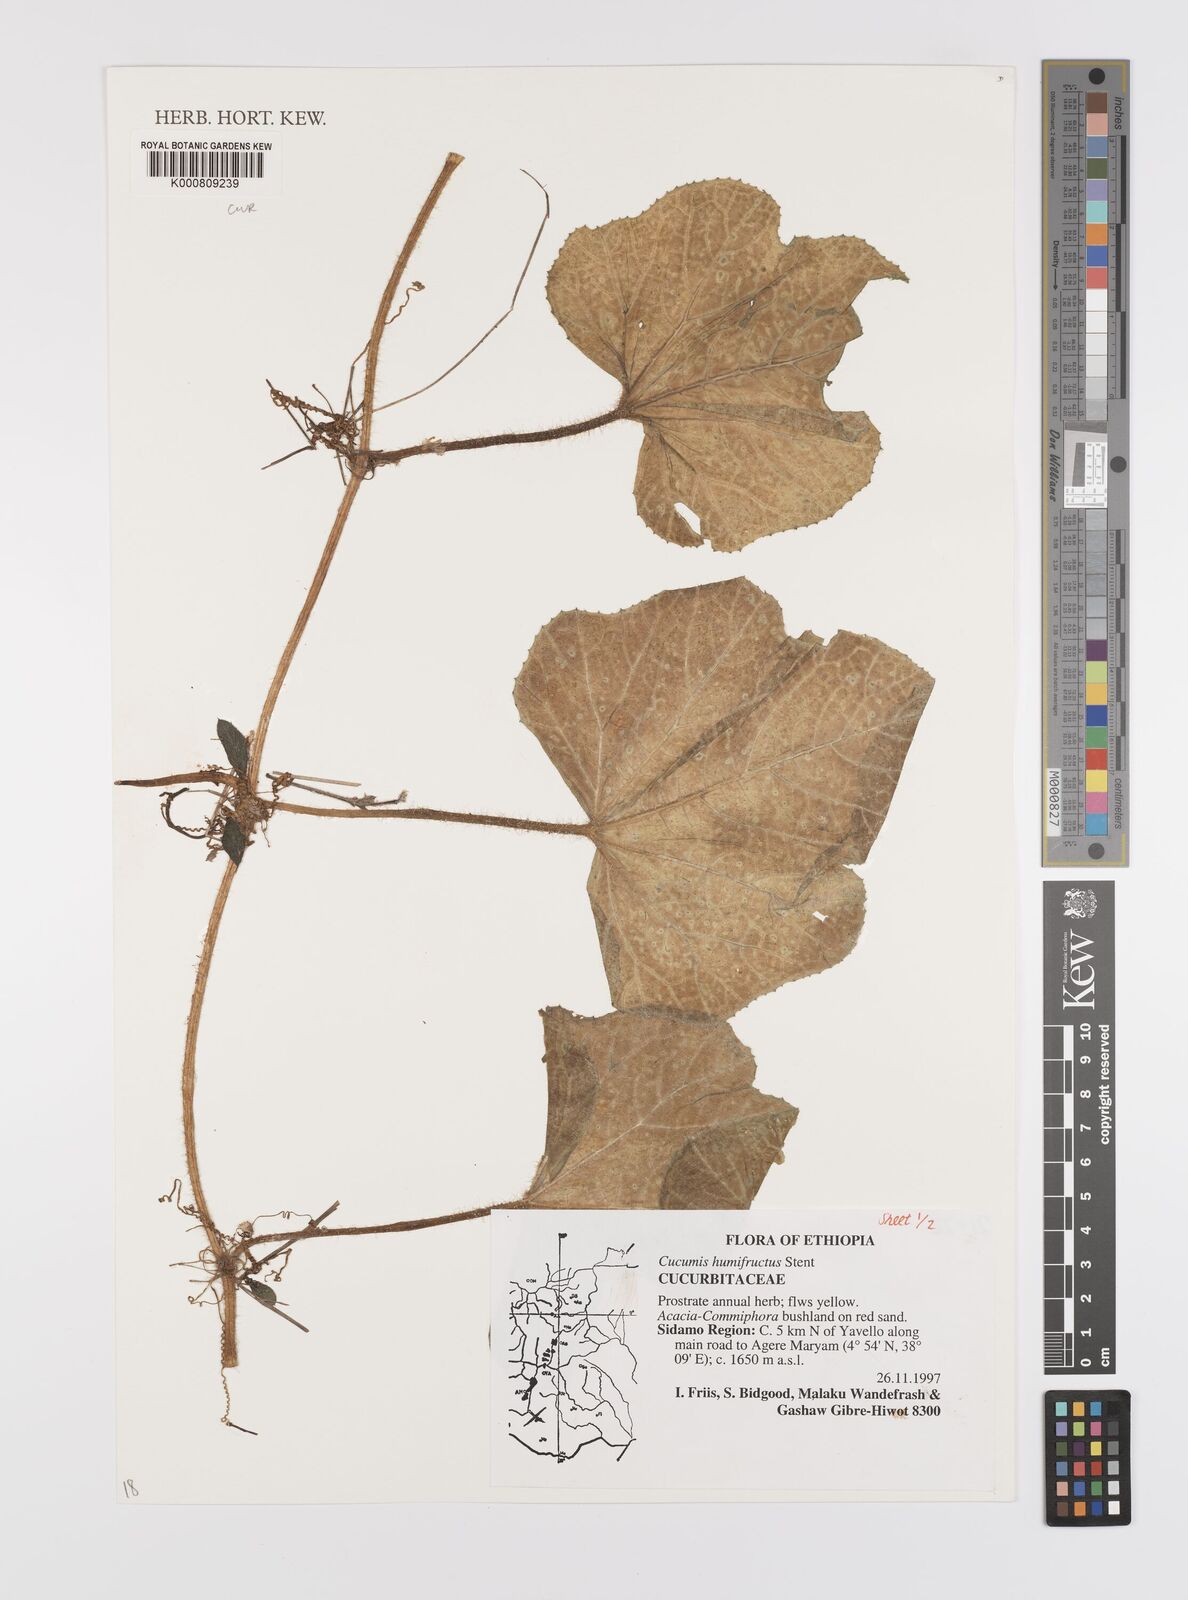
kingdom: Plantae
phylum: Tracheophyta
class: Magnoliopsida
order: Cucurbitales
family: Cucurbitaceae
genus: Cucumis
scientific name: Cucumis
